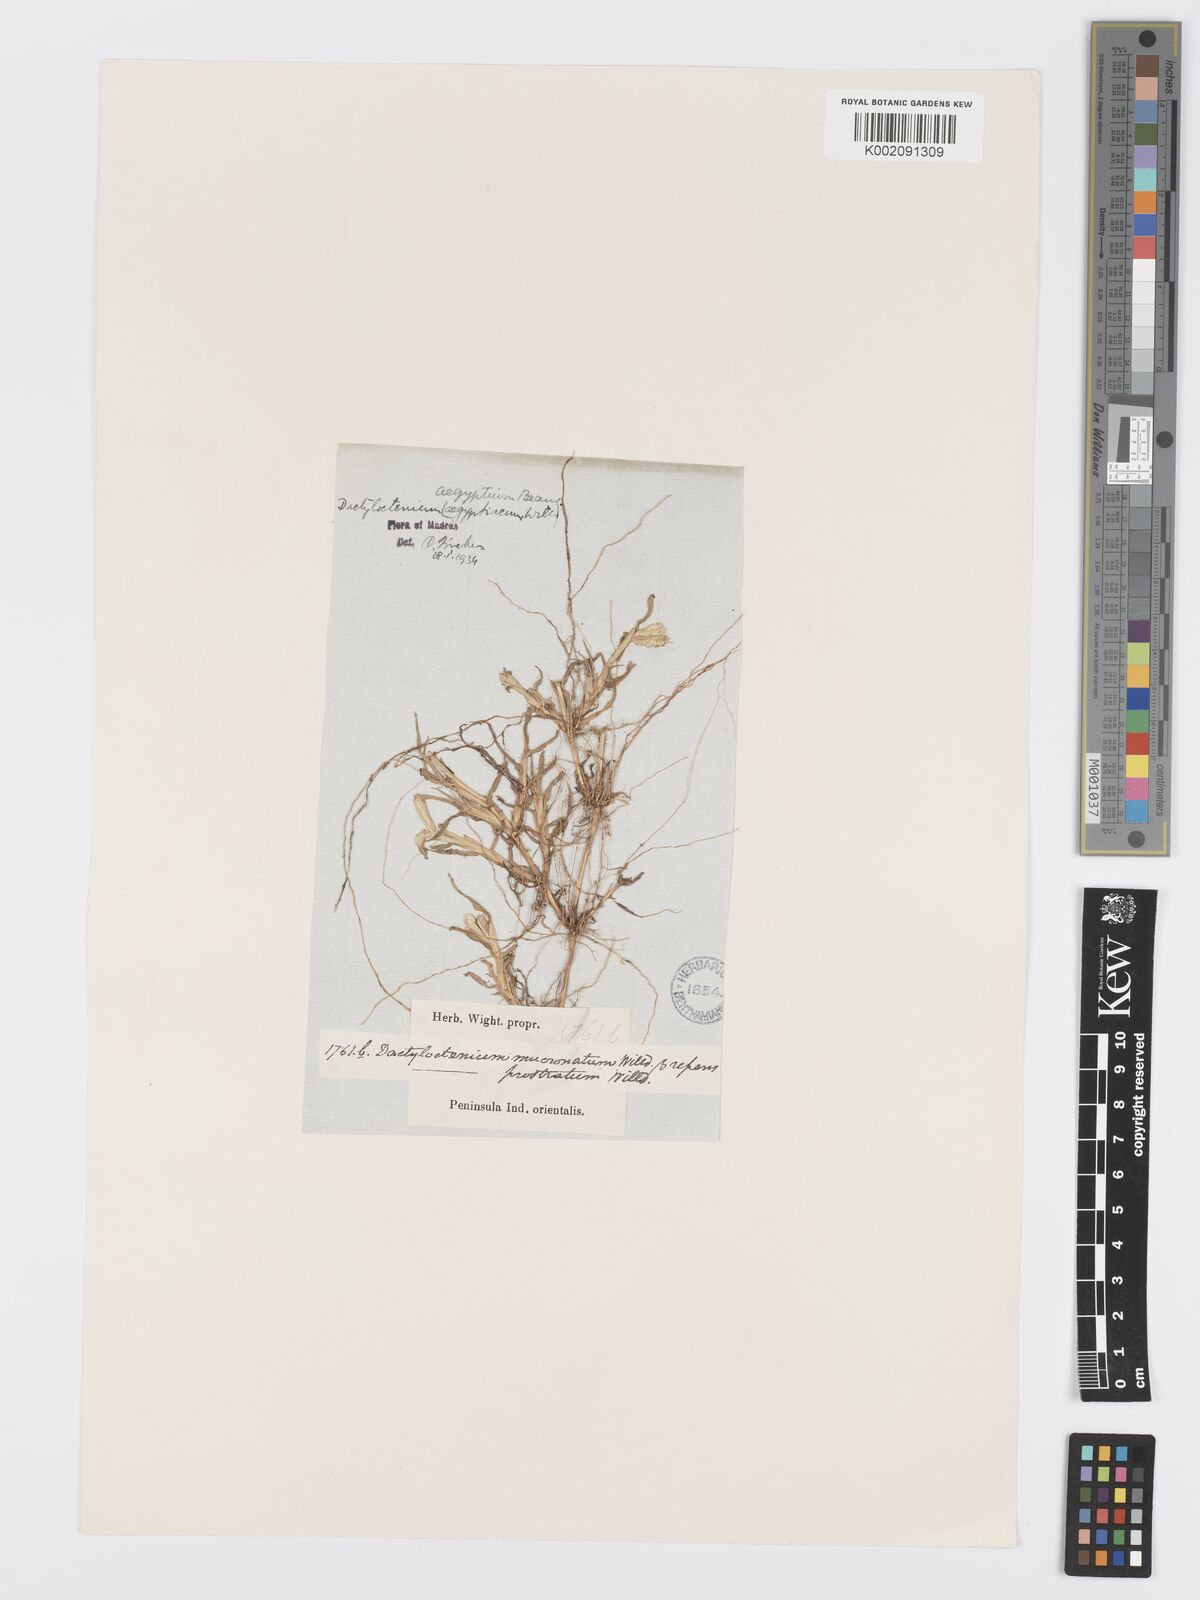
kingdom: Plantae
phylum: Tracheophyta
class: Liliopsida
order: Poales
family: Poaceae
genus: Dactyloctenium
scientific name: Dactyloctenium aegyptium
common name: Egyptian grass
